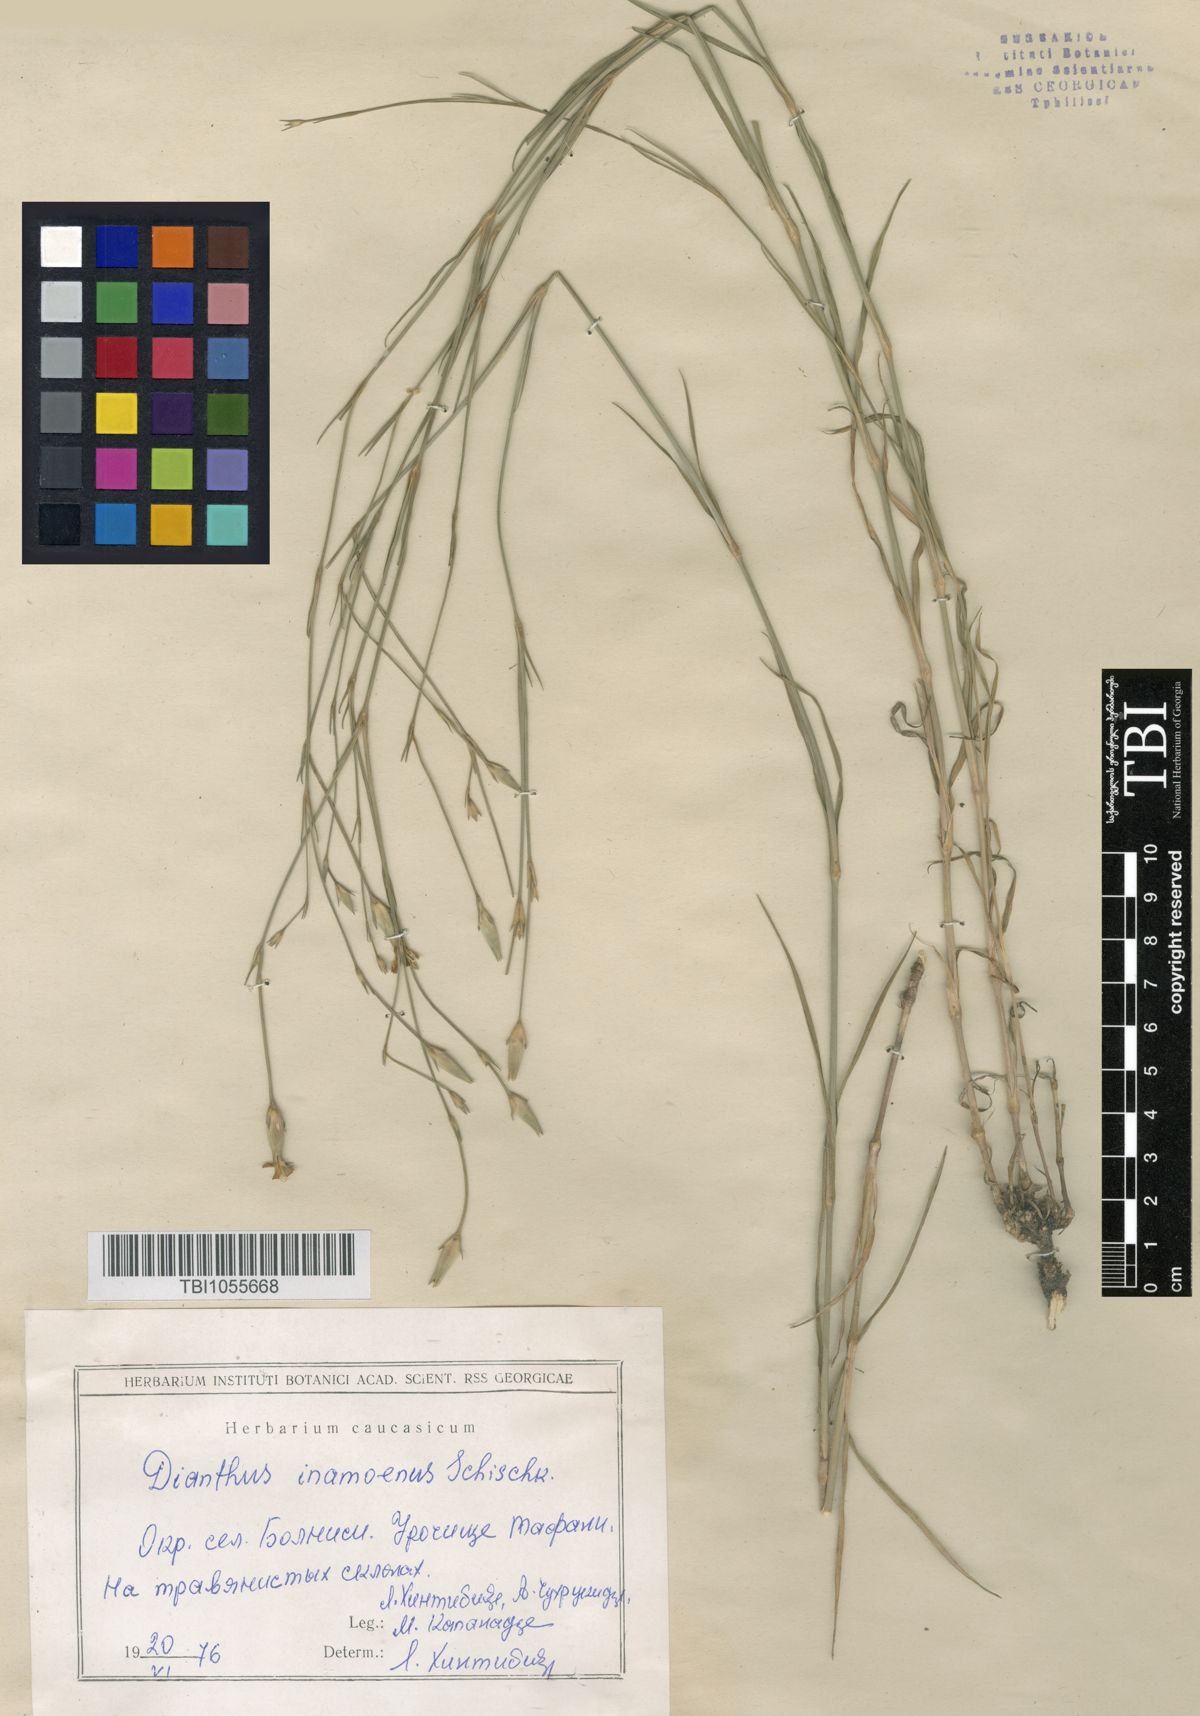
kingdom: Plantae
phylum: Tracheophyta
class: Magnoliopsida
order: Caryophyllales
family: Caryophyllaceae
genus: Dianthus
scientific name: Dianthus inamoenus
